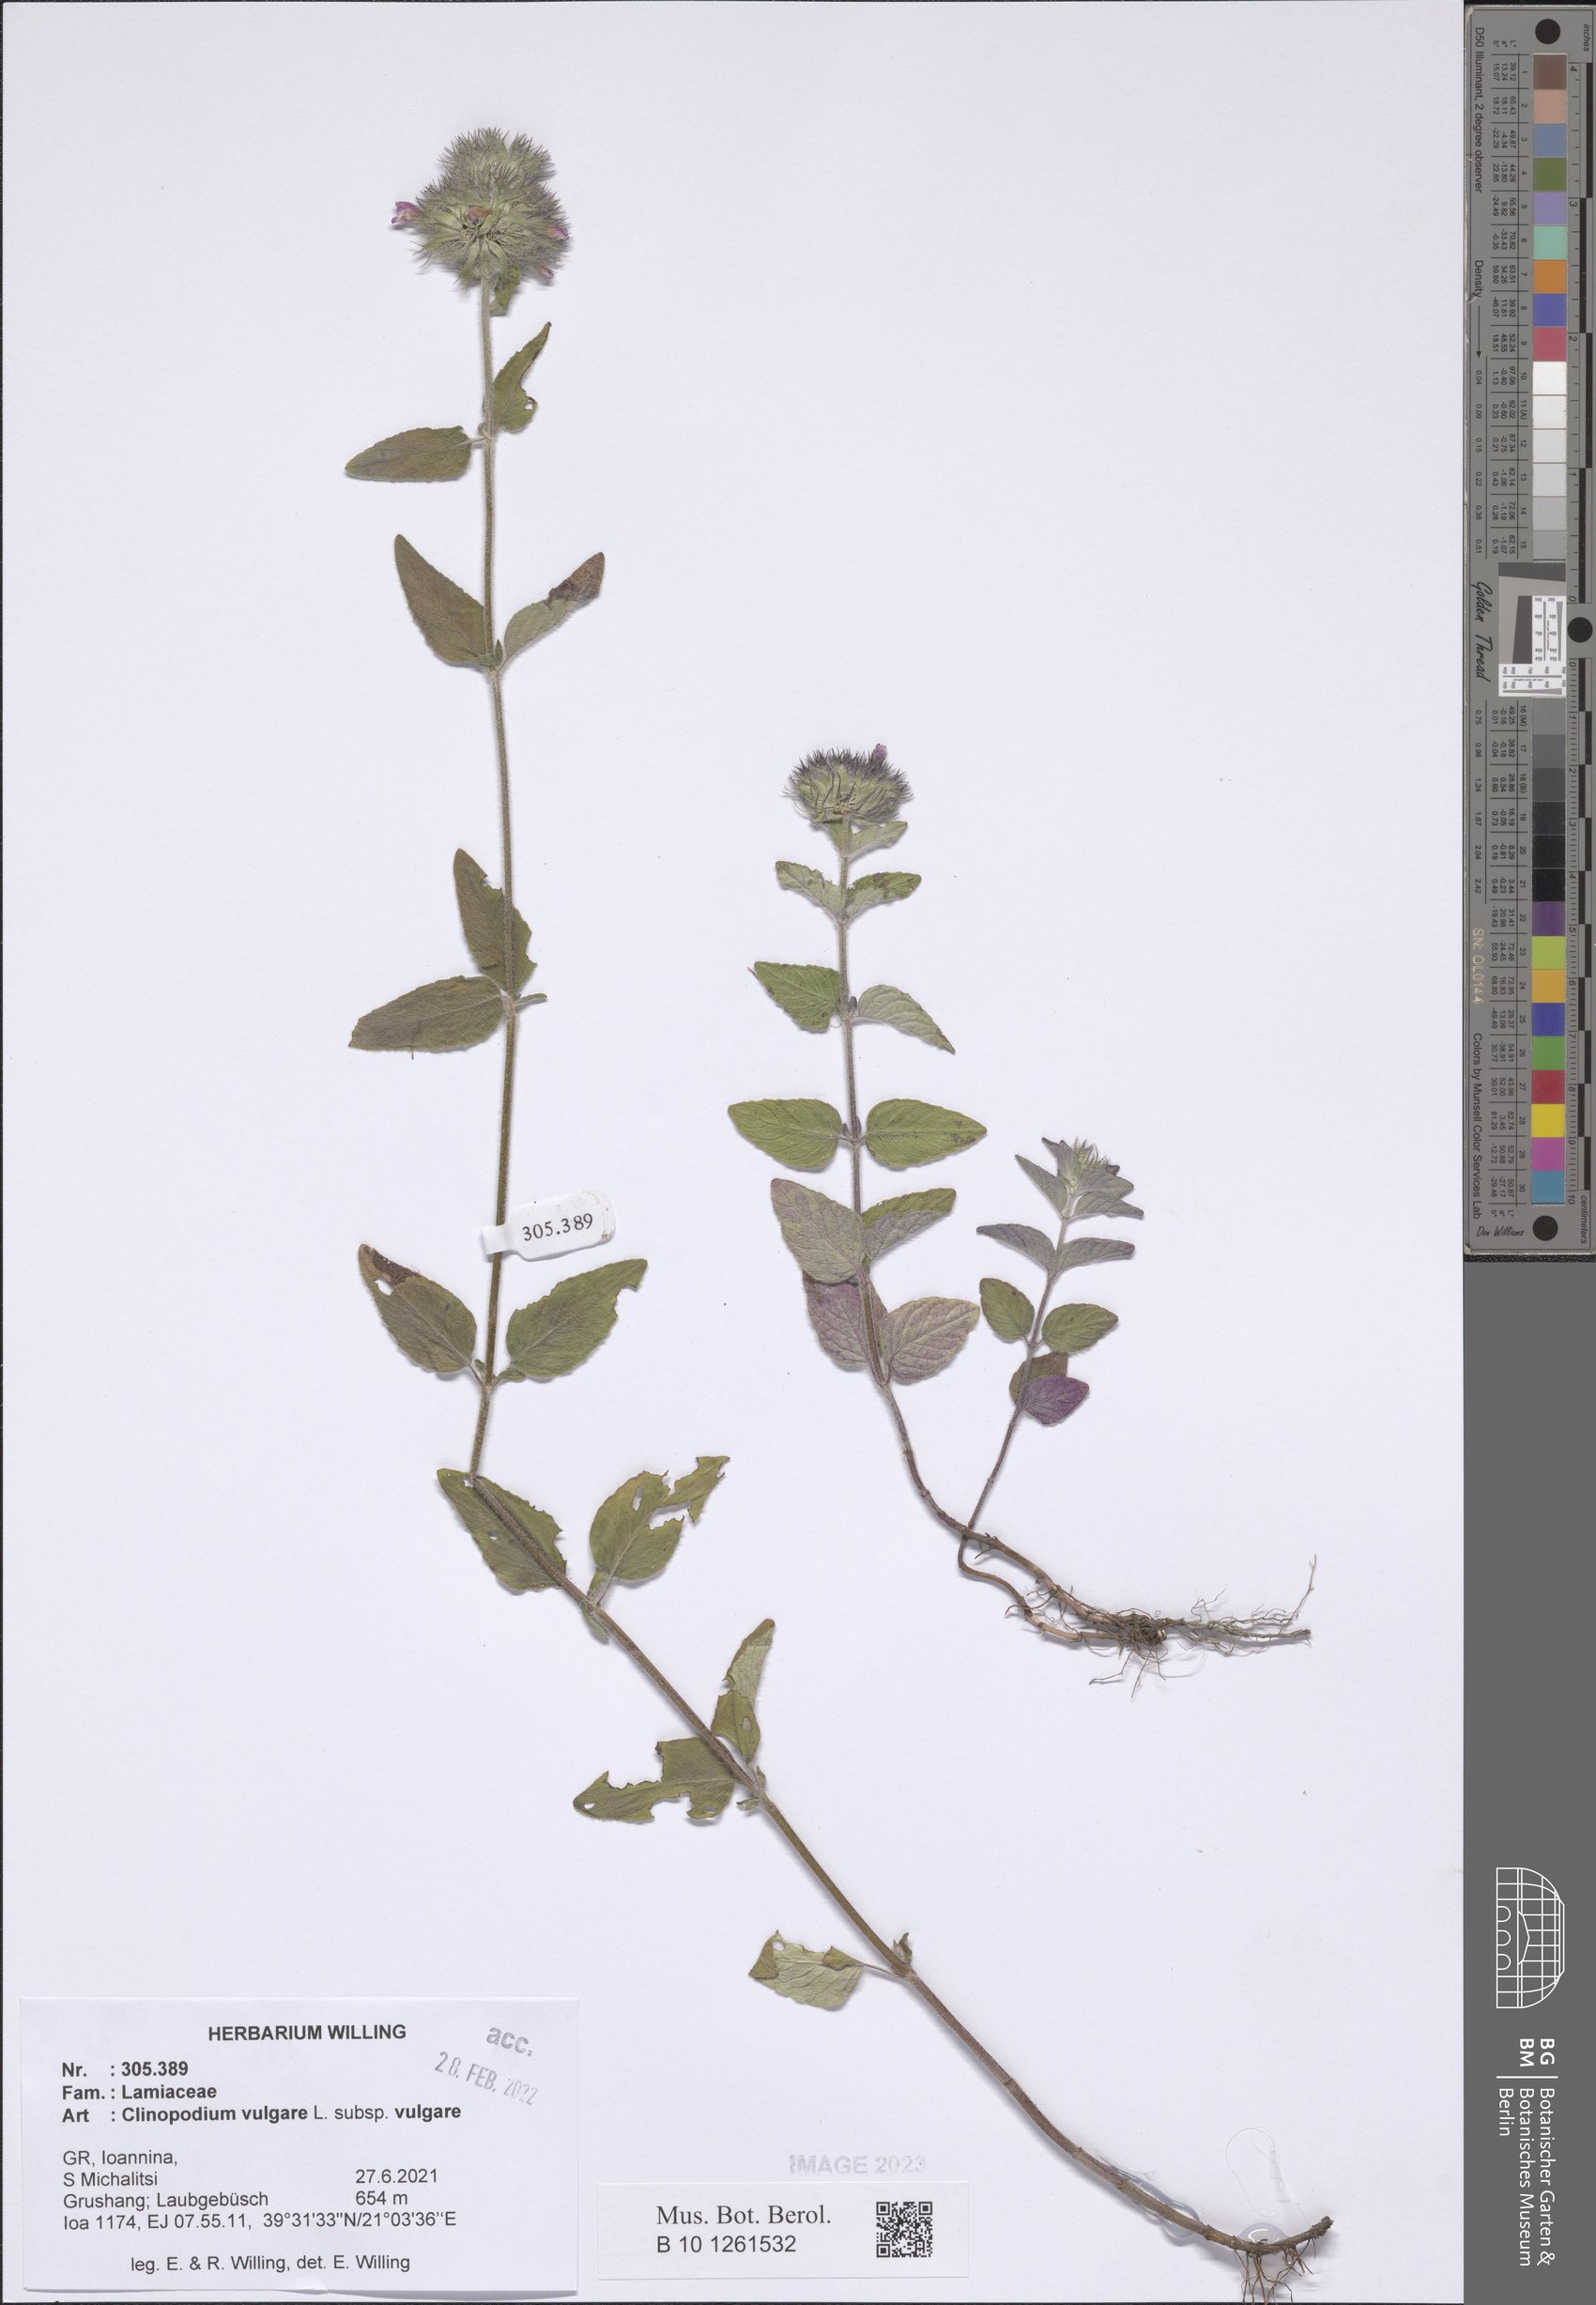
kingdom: Plantae
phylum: Tracheophyta
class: Magnoliopsida
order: Lamiales
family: Lamiaceae
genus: Clinopodium
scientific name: Clinopodium vulgare
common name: Wild basil
